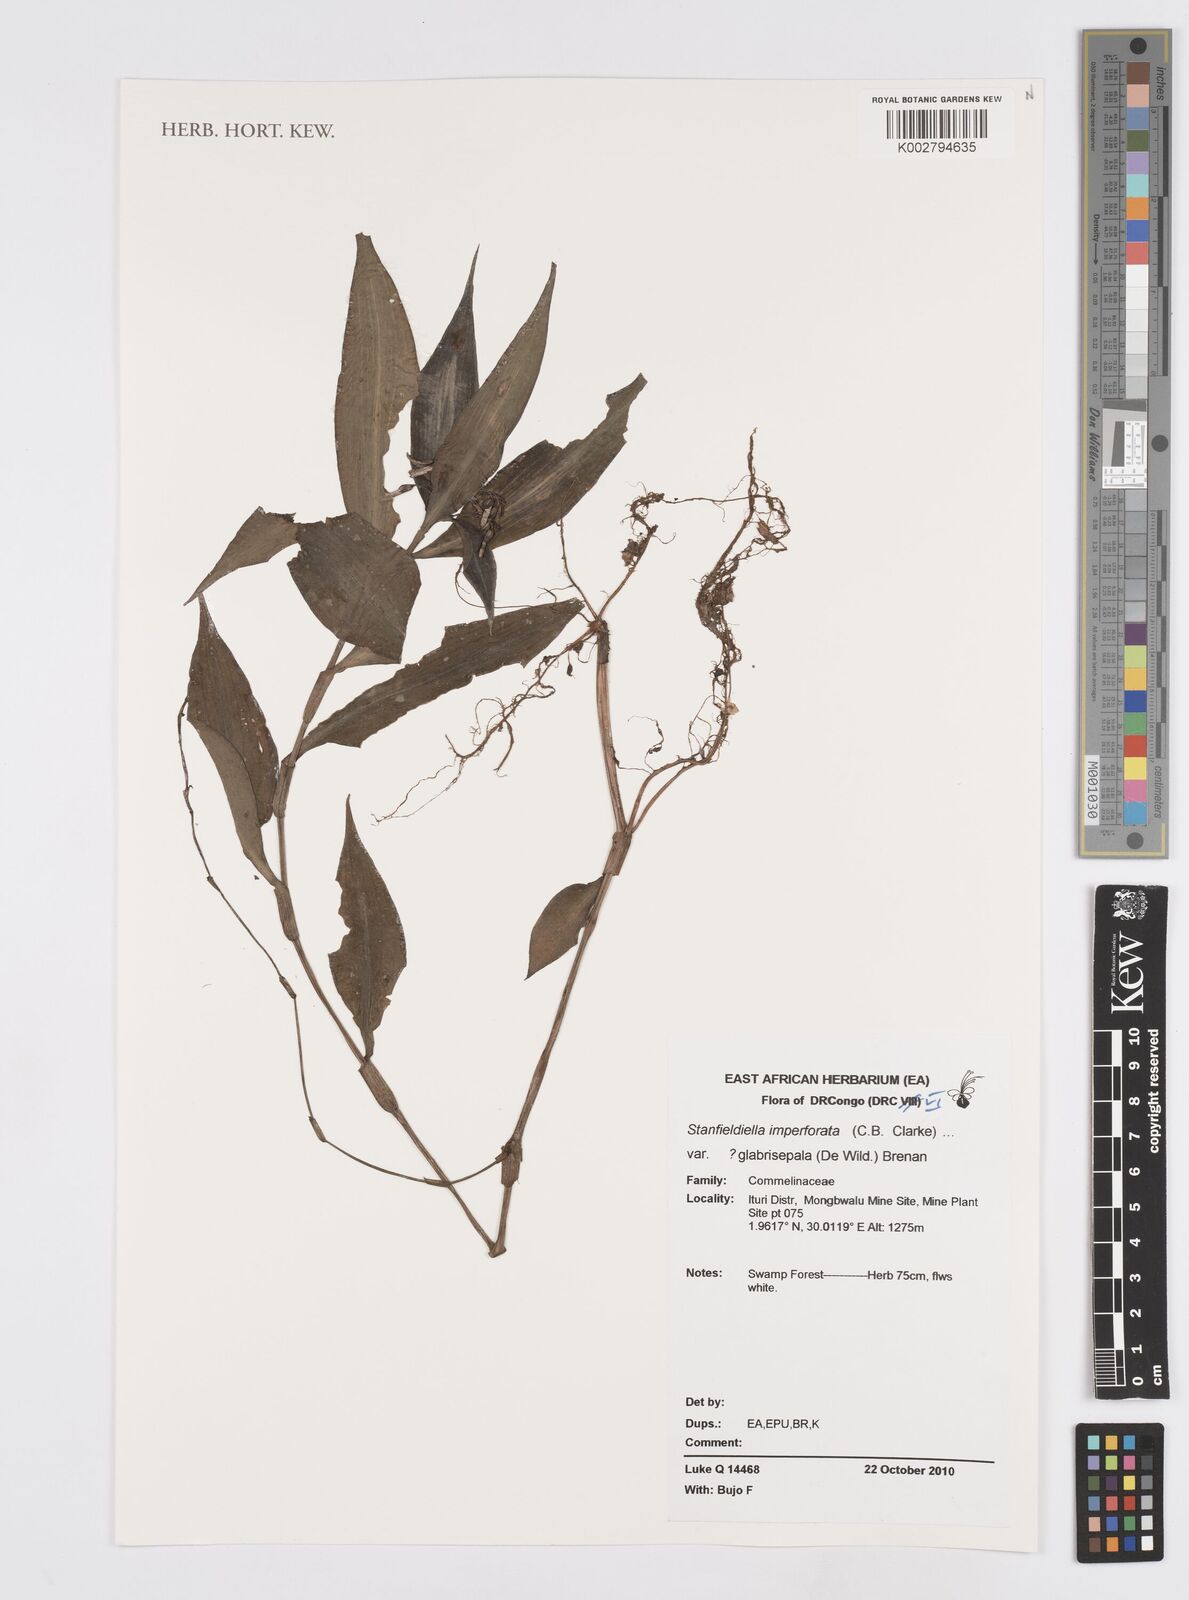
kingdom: Plantae
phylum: Tracheophyta
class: Liliopsida
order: Commelinales
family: Commelinaceae
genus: Stanfieldiella
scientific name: Stanfieldiella imperforata
